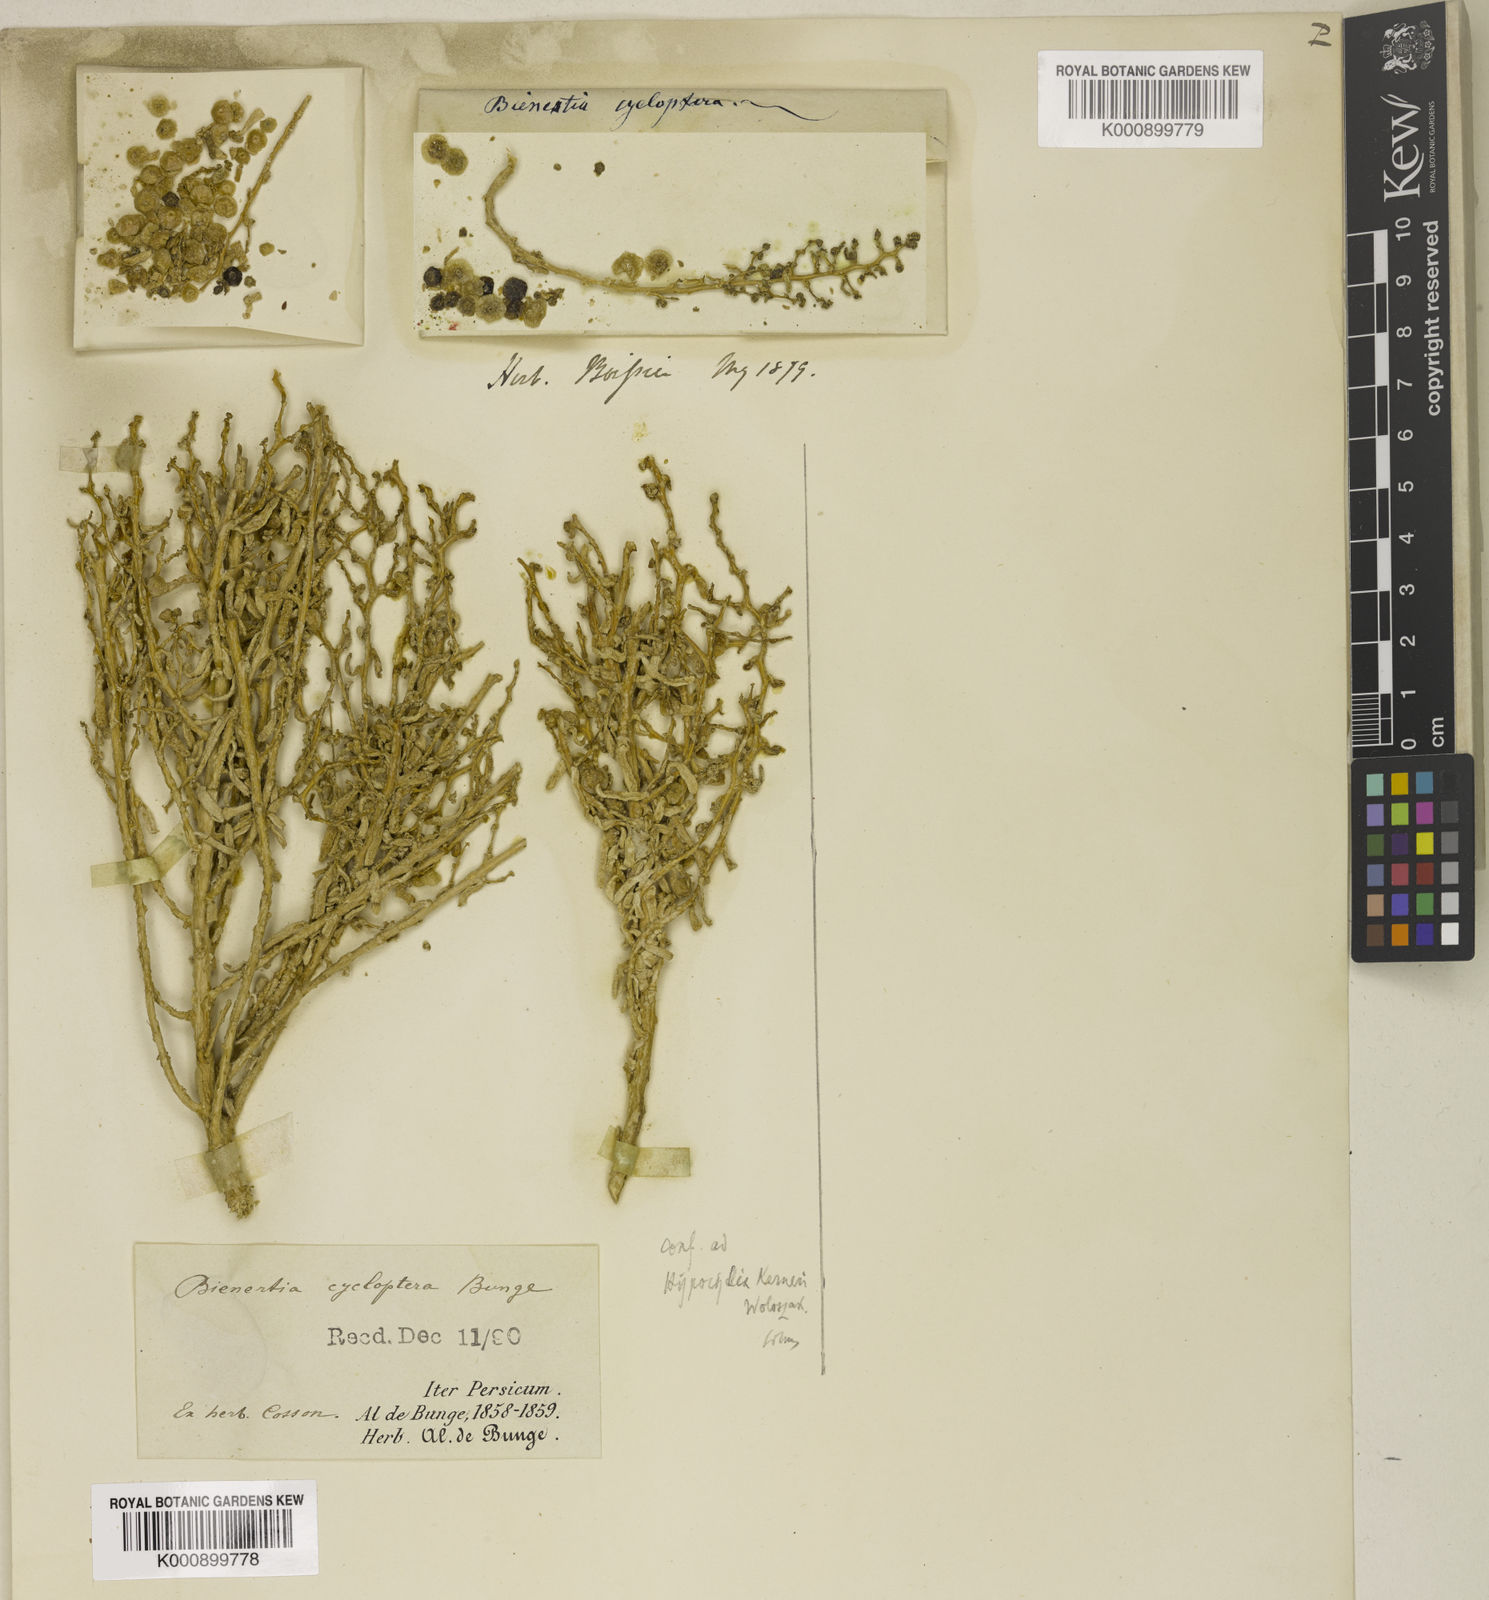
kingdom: Plantae
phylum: Tracheophyta
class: Magnoliopsida
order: Caryophyllales
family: Amaranthaceae
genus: Bienertia
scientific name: Bienertia cycloptera
